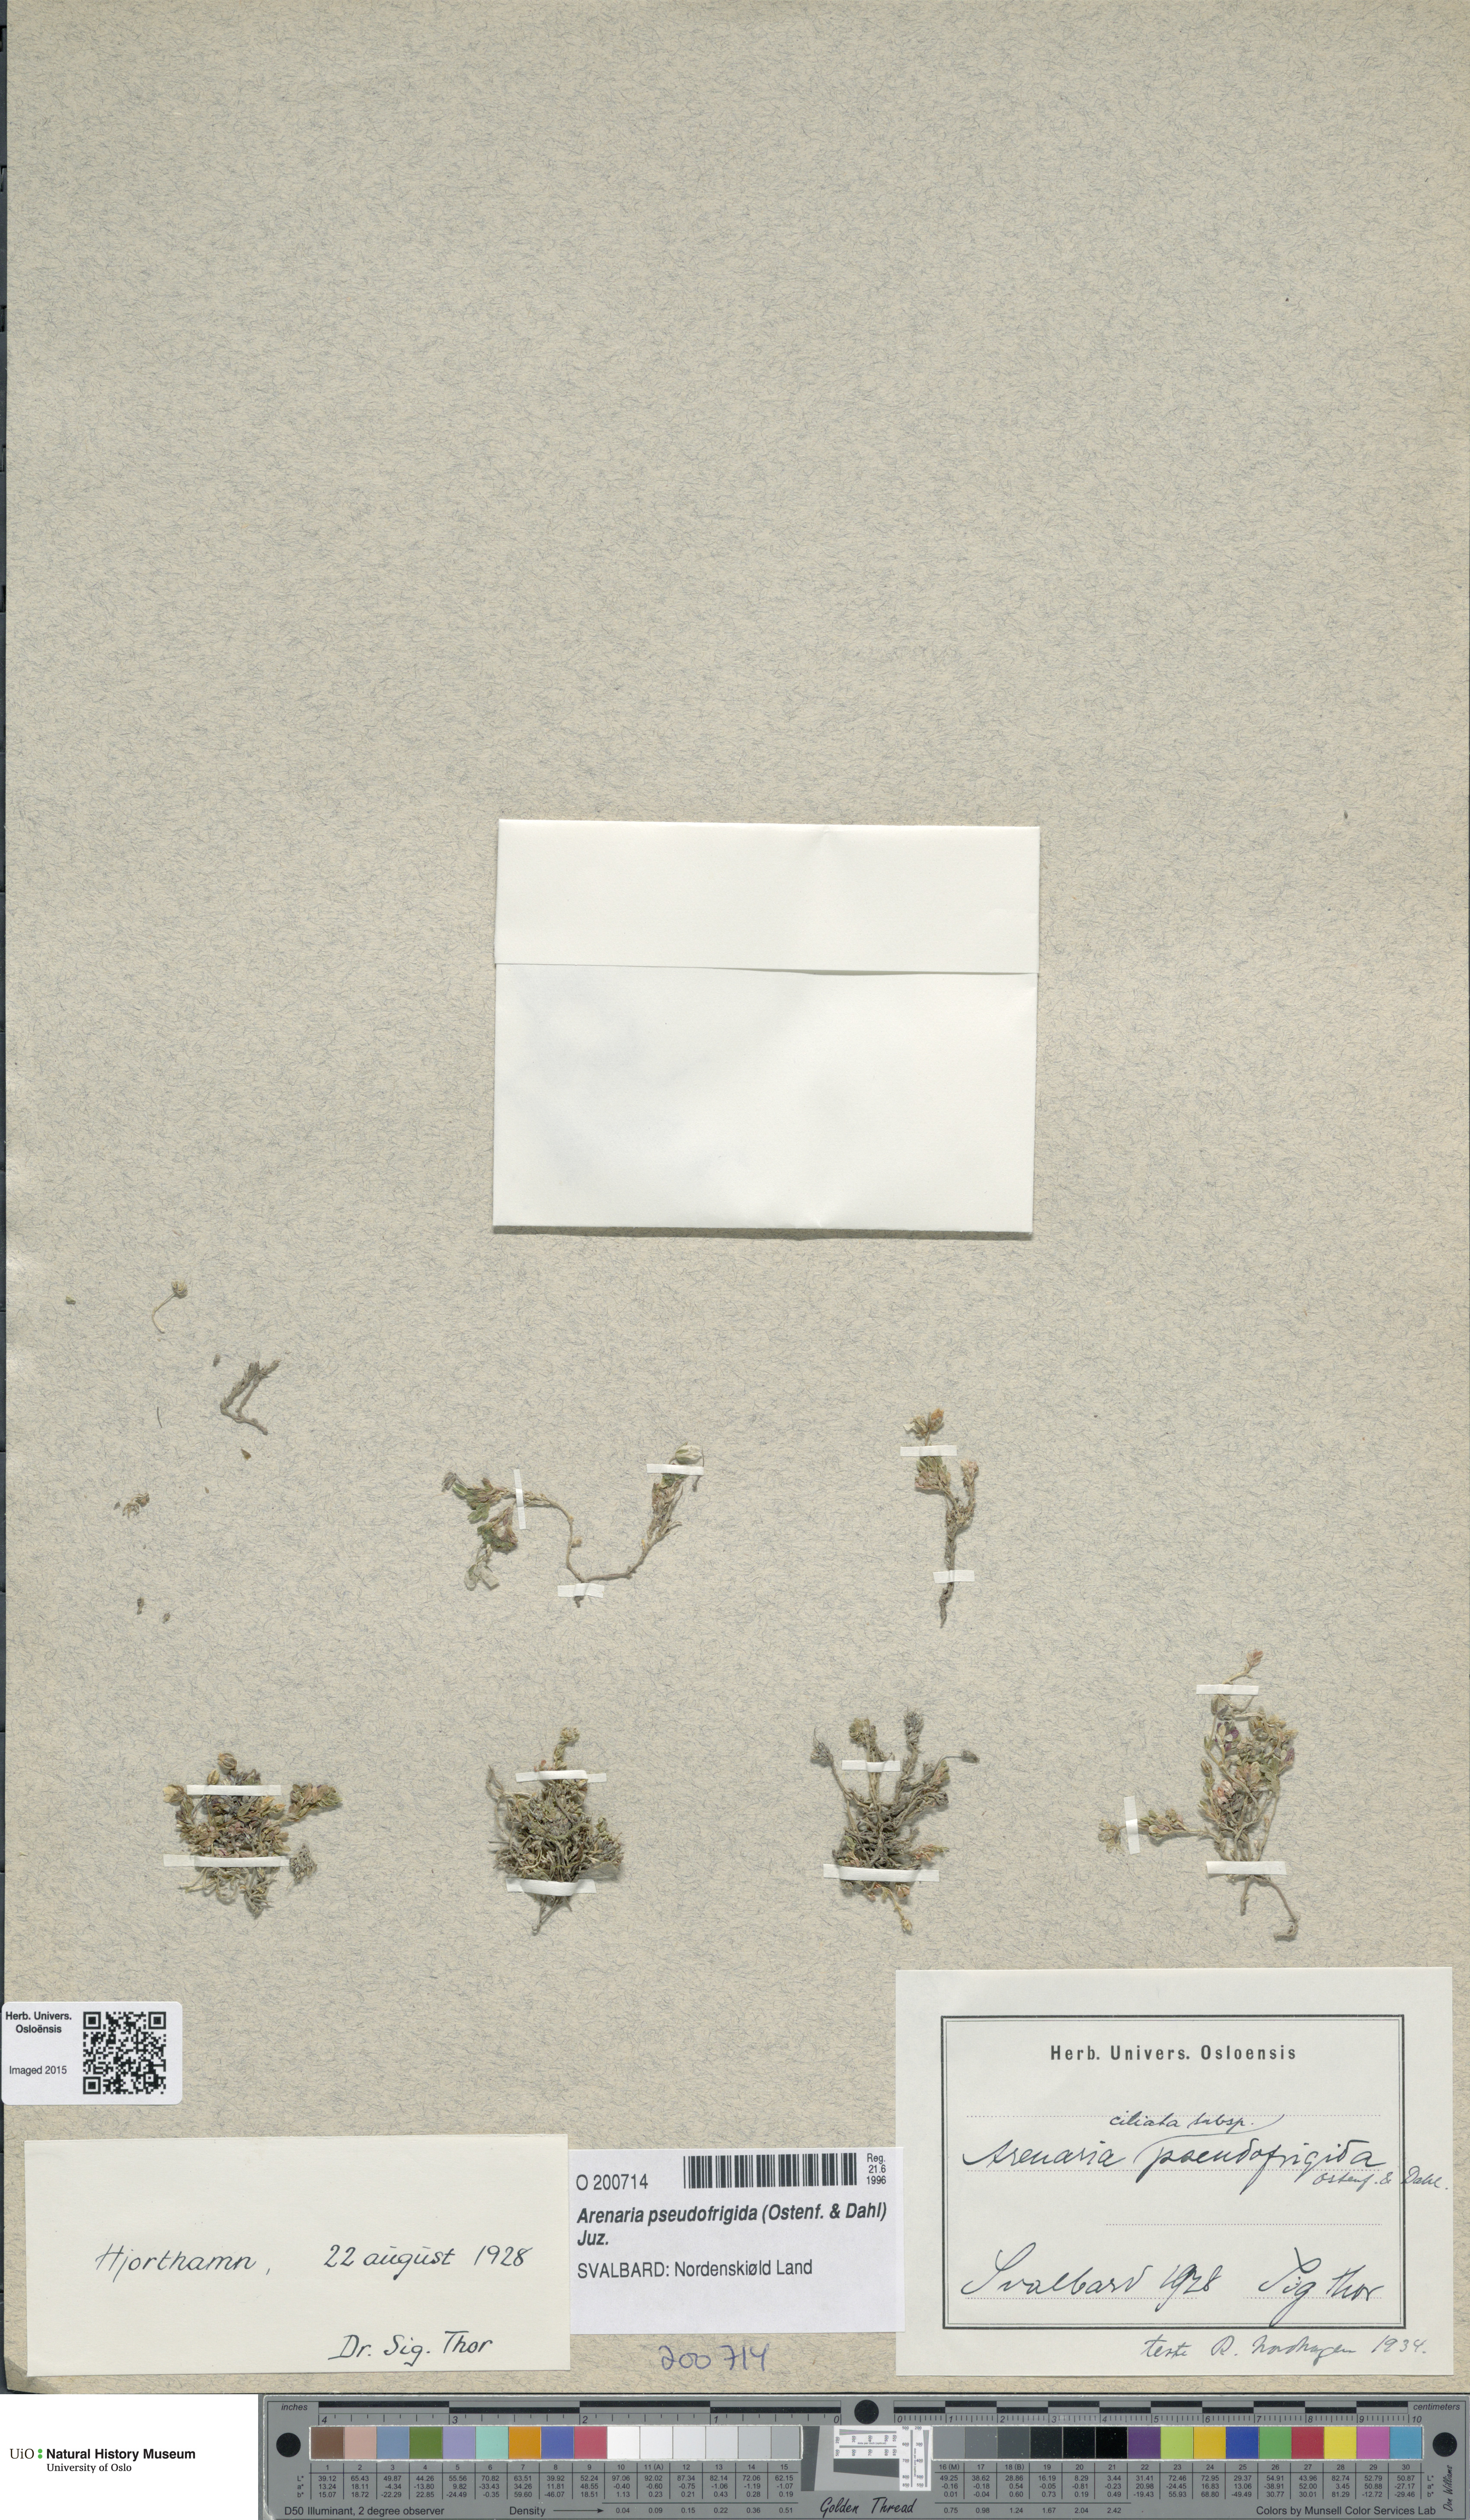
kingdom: Plantae
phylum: Tracheophyta
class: Magnoliopsida
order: Caryophyllales
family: Caryophyllaceae
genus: Arenaria
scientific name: Arenaria pseudofrigida
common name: Tundra sandwort
